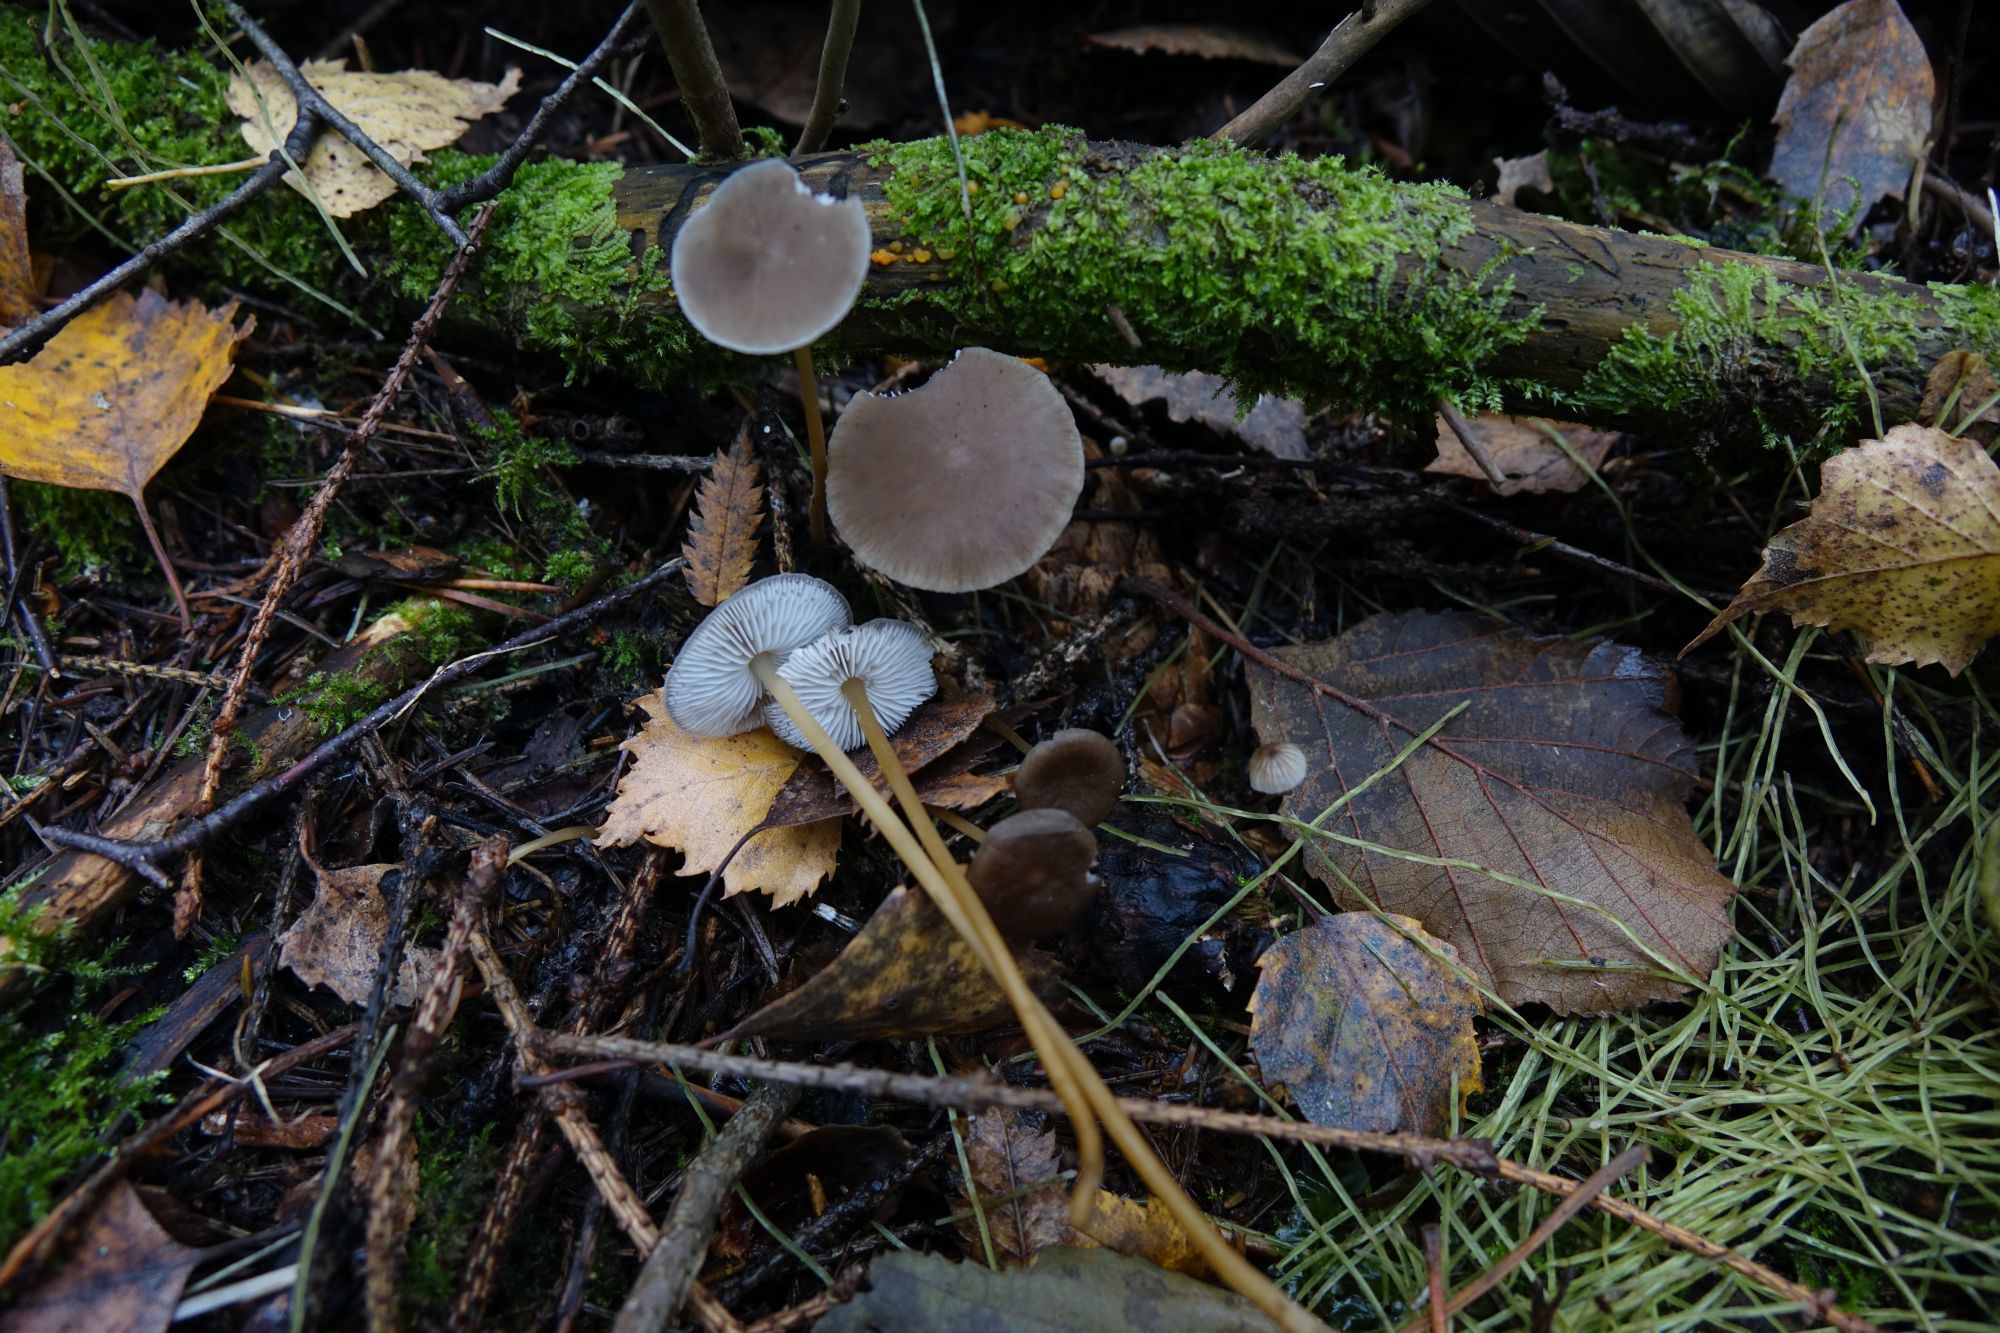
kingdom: Fungi
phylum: Basidiomycota
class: Agaricomycetes
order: Agaricales
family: Physalacriaceae
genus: Strobilurus
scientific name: Strobilurus esculentus
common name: Sprucecone cap
